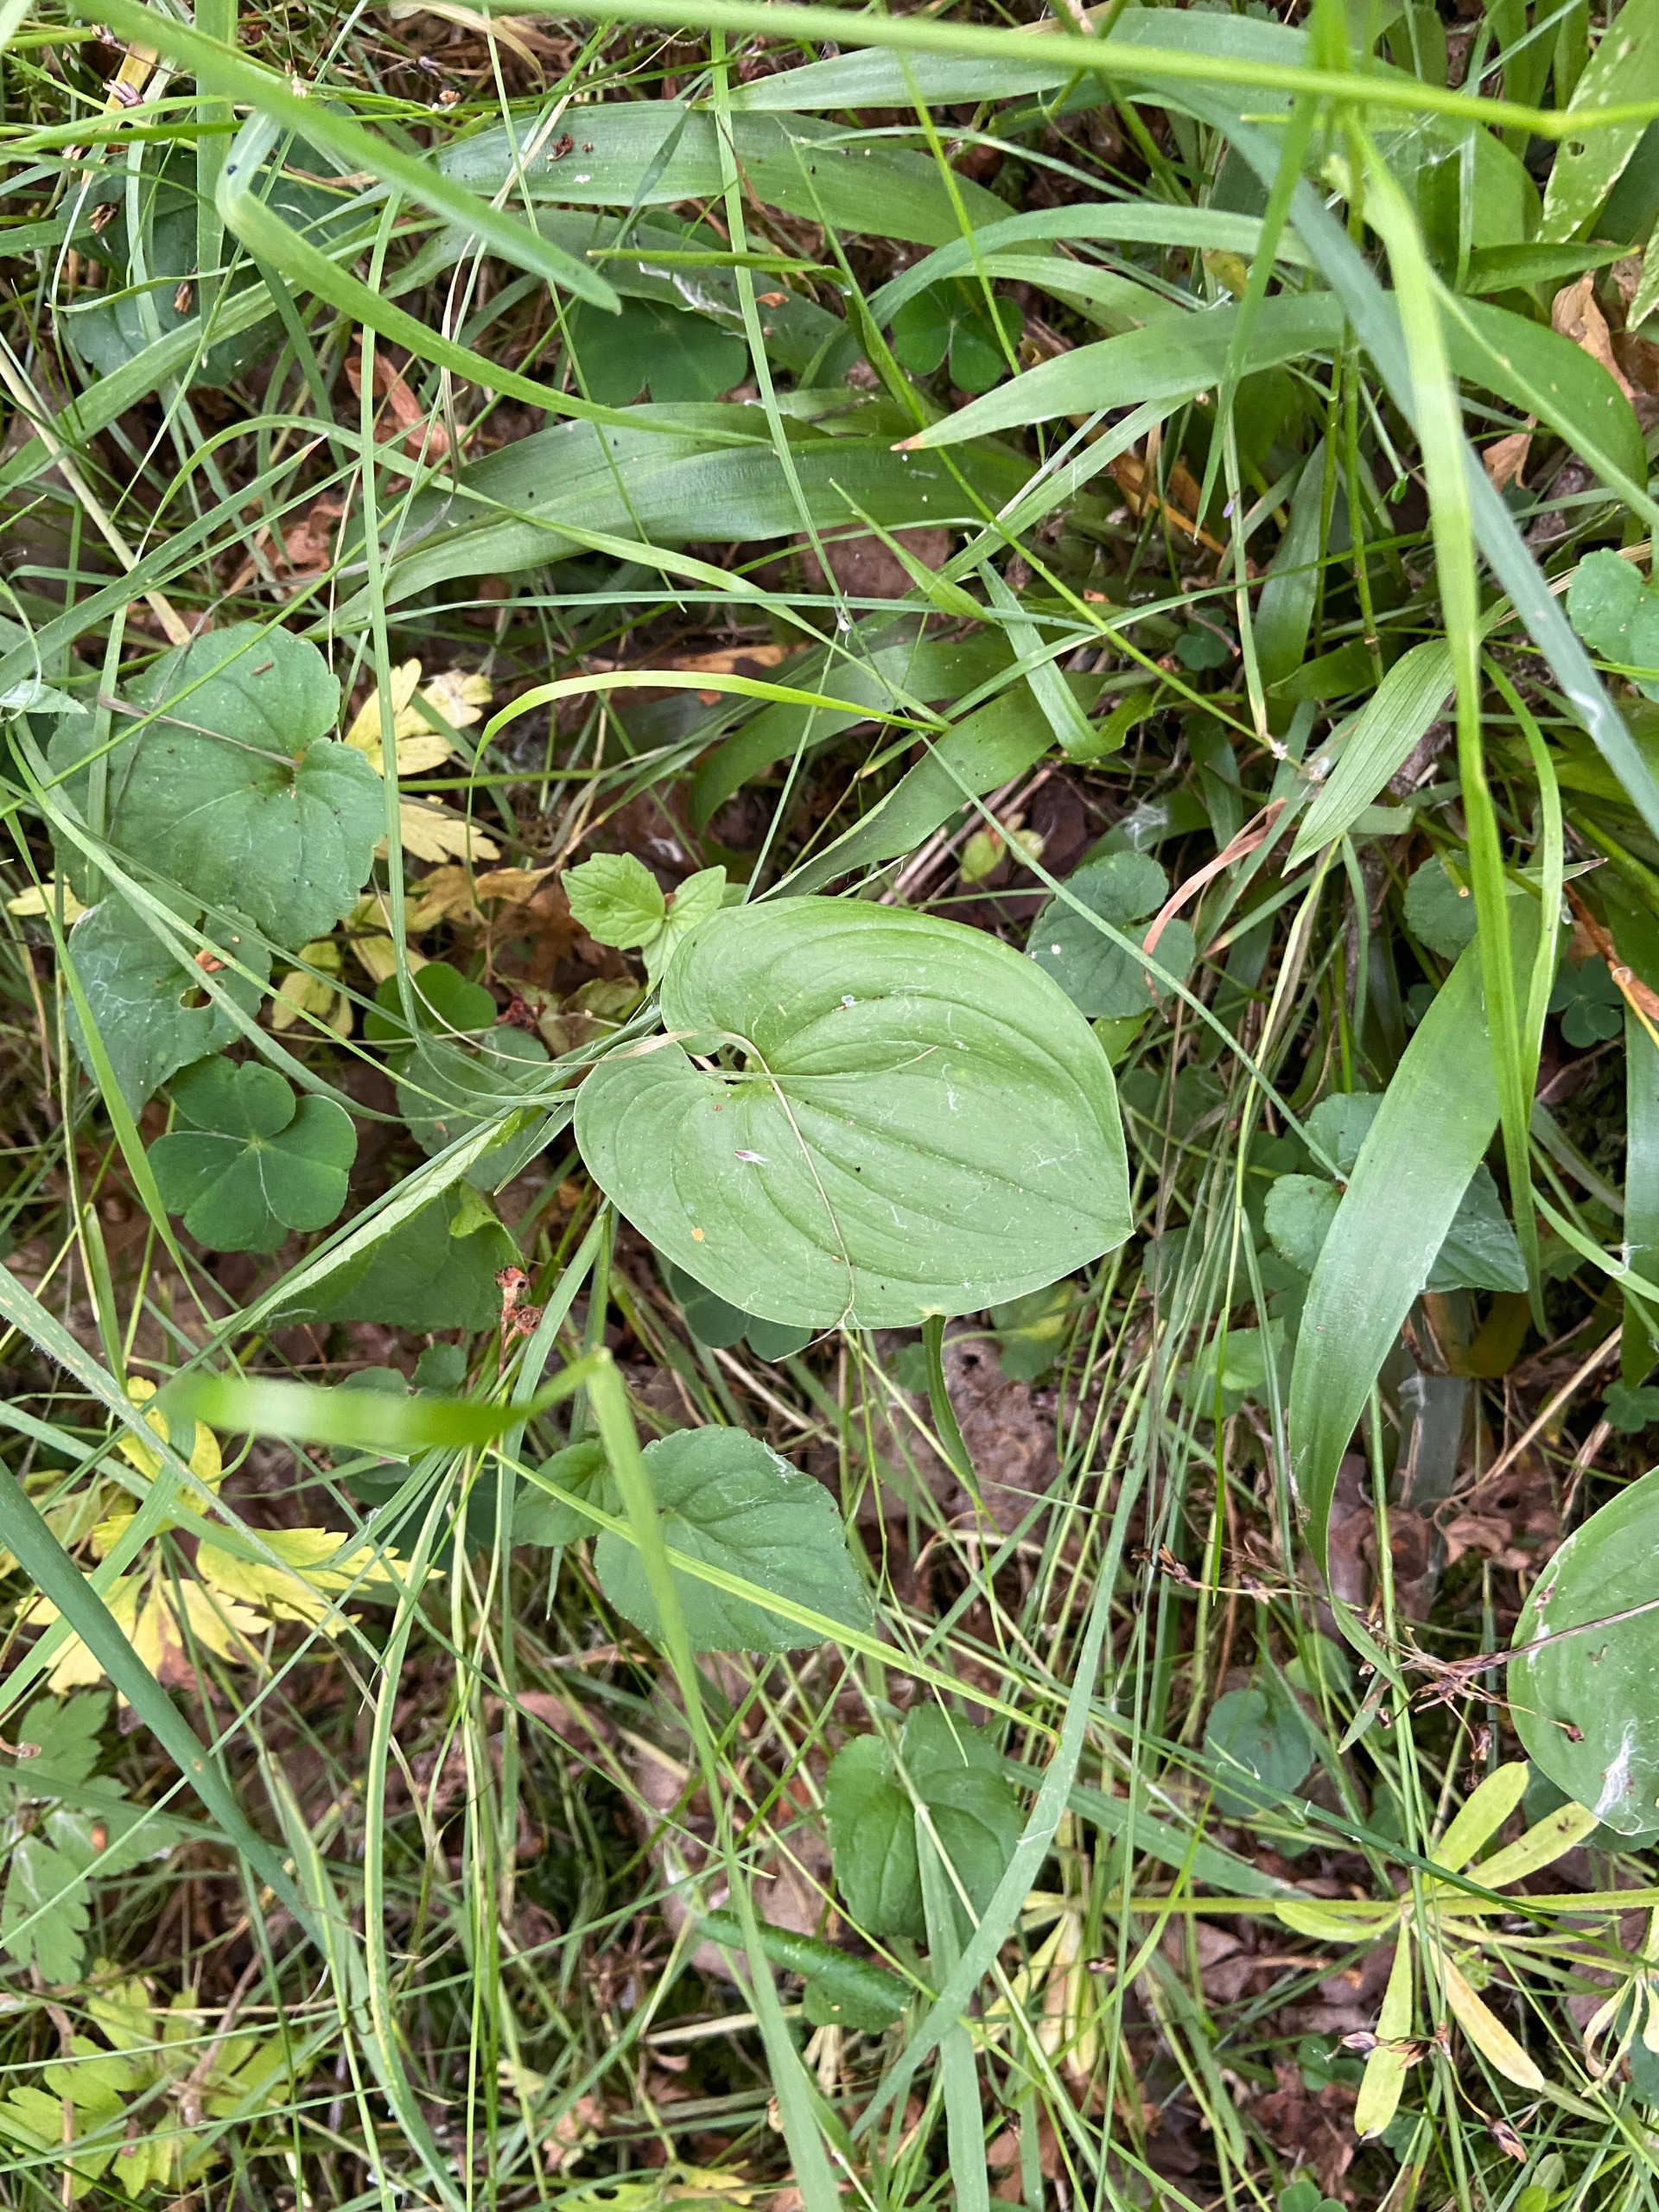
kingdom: Plantae
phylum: Tracheophyta
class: Liliopsida
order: Asparagales
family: Asparagaceae
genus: Maianthemum
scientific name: Maianthemum bifolium
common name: Majblomst
